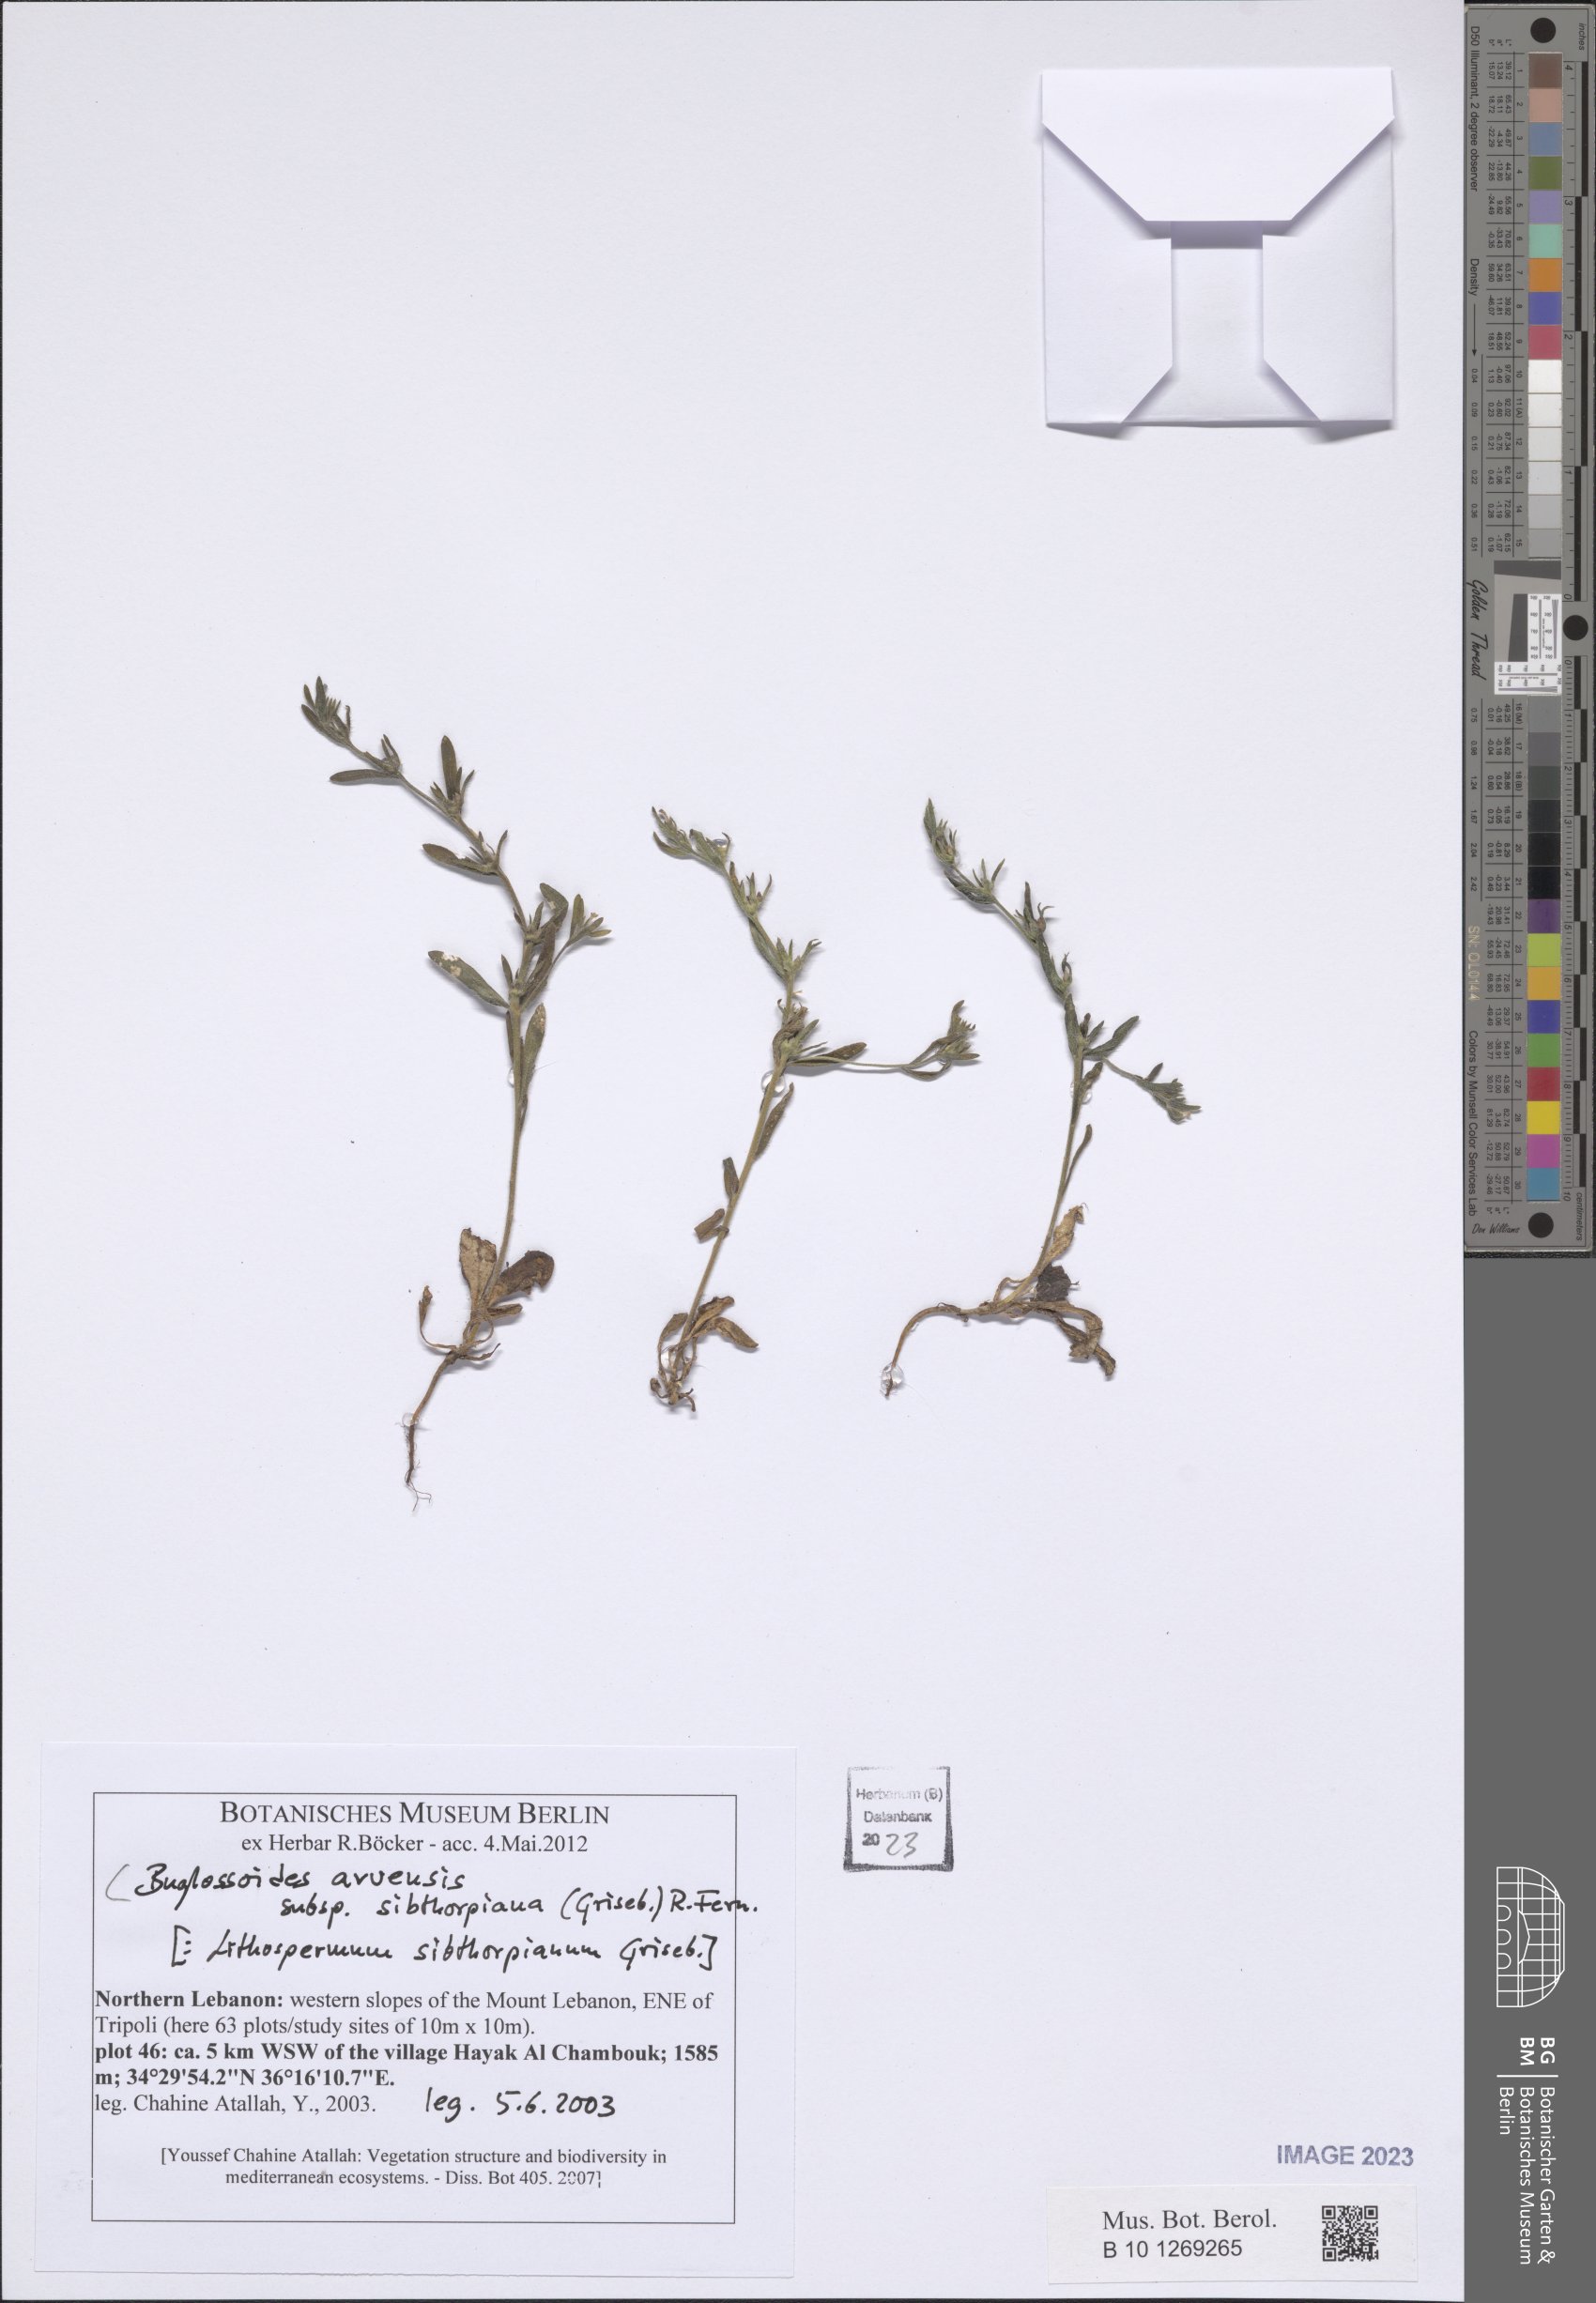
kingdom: Plantae
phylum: Tracheophyta
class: Magnoliopsida
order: Boraginales
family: Boraginaceae
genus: Buglossoides
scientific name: Buglossoides arvensis
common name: Corn gromwell
